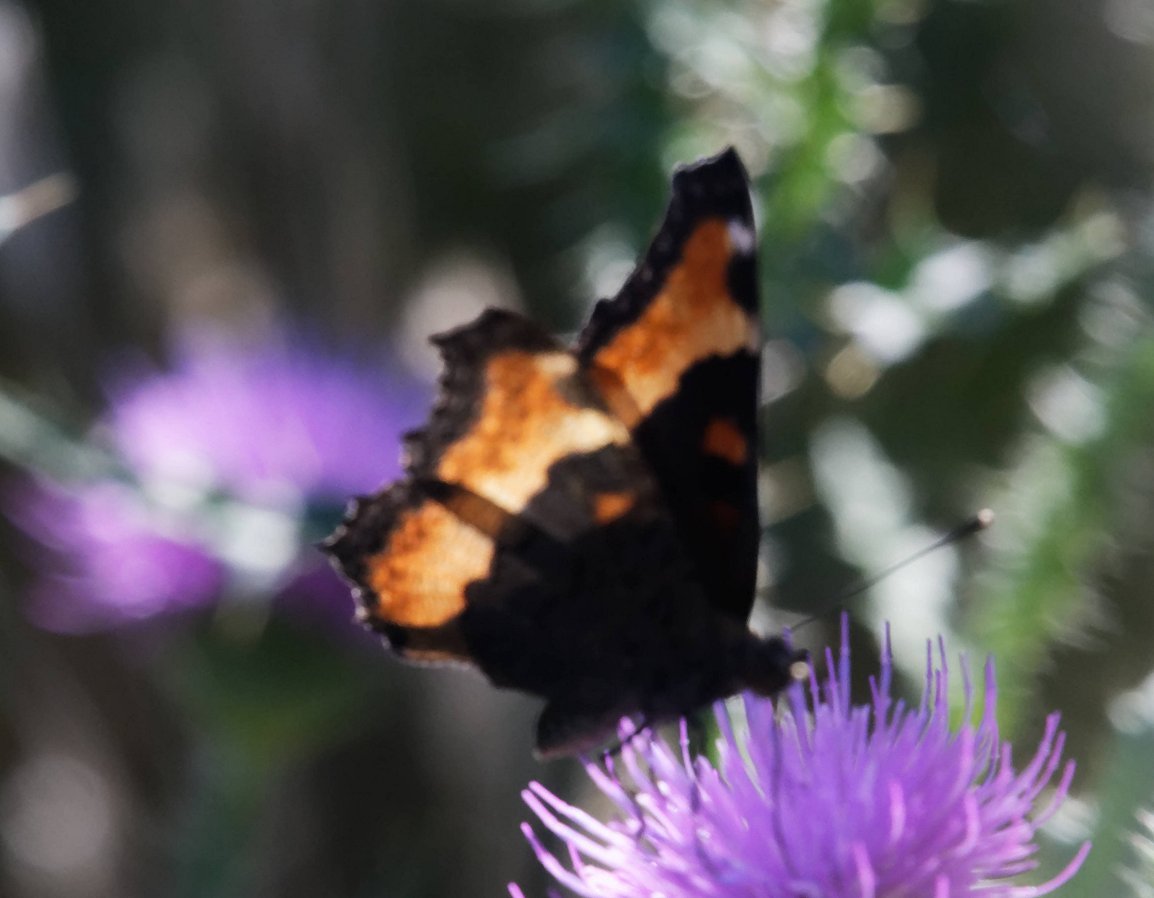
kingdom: Animalia
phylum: Arthropoda
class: Insecta
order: Lepidoptera
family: Nymphalidae
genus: Aglais
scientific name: Aglais milberti
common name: Milbert's Tortoiseshell
